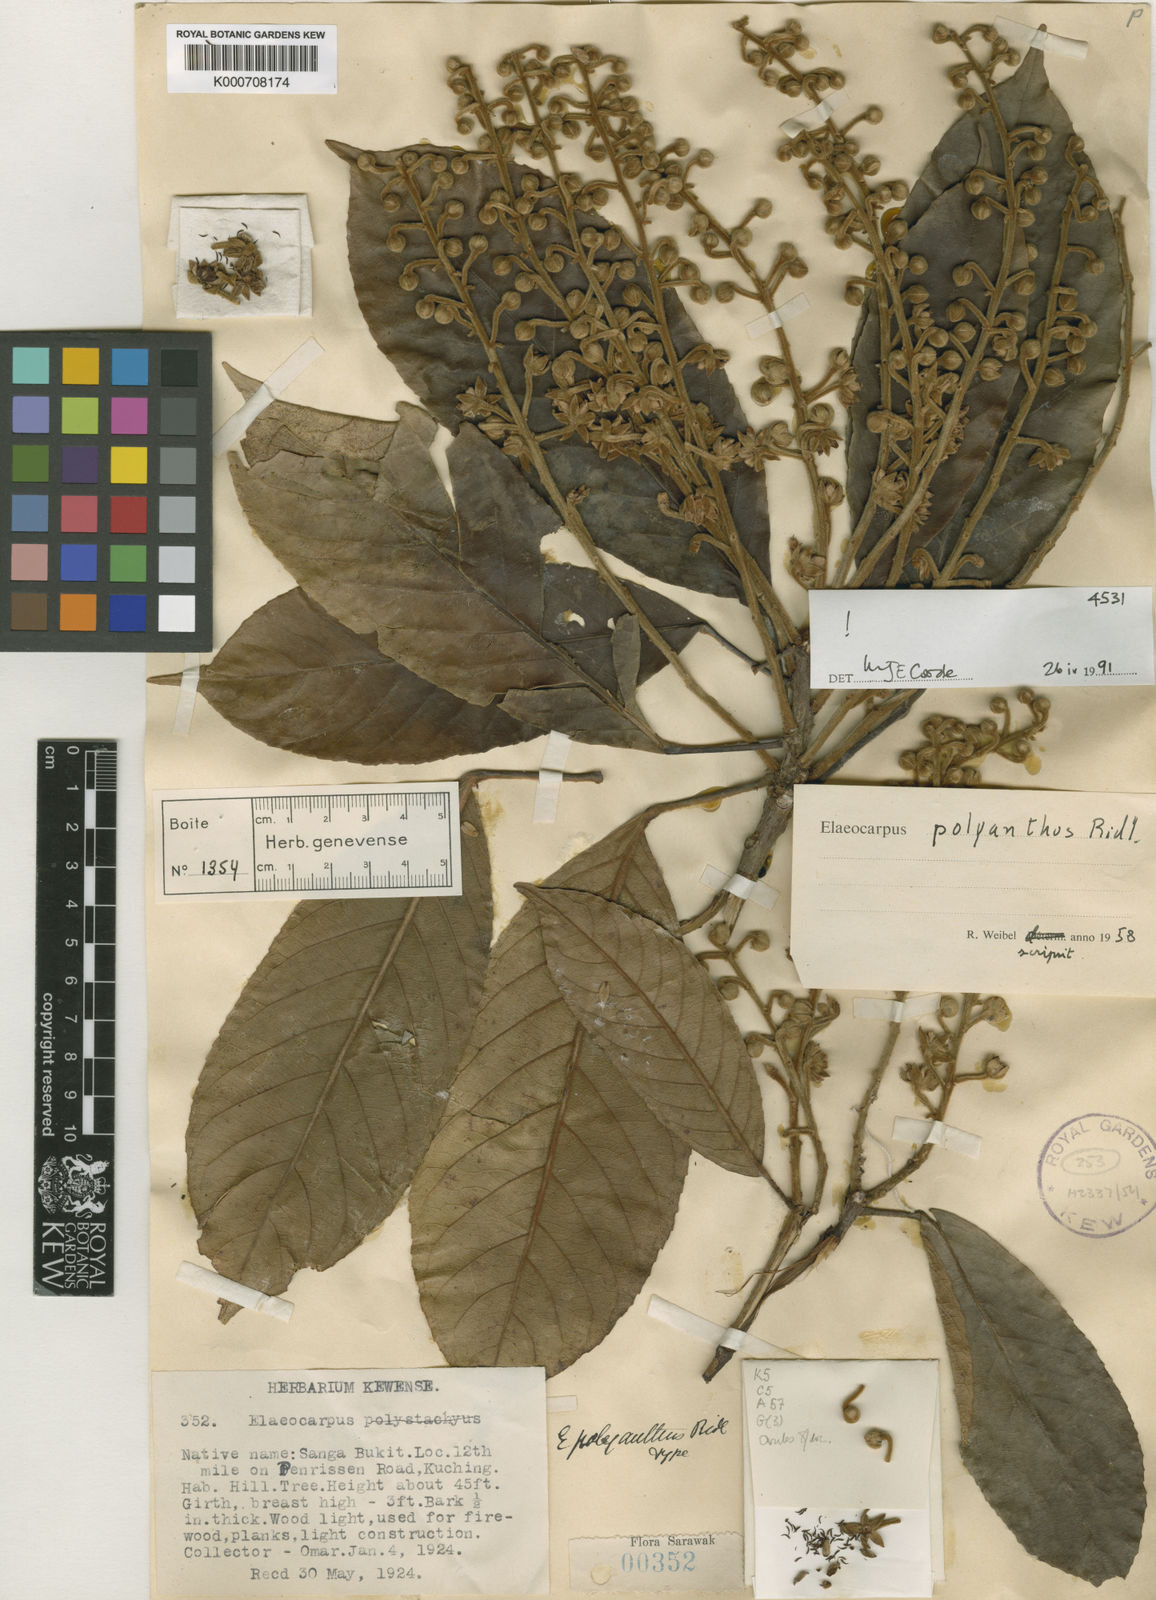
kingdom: Plantae
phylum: Tracheophyta
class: Magnoliopsida
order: Oxalidales
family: Elaeocarpaceae
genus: Elaeocarpus
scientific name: Elaeocarpus polyanthus
